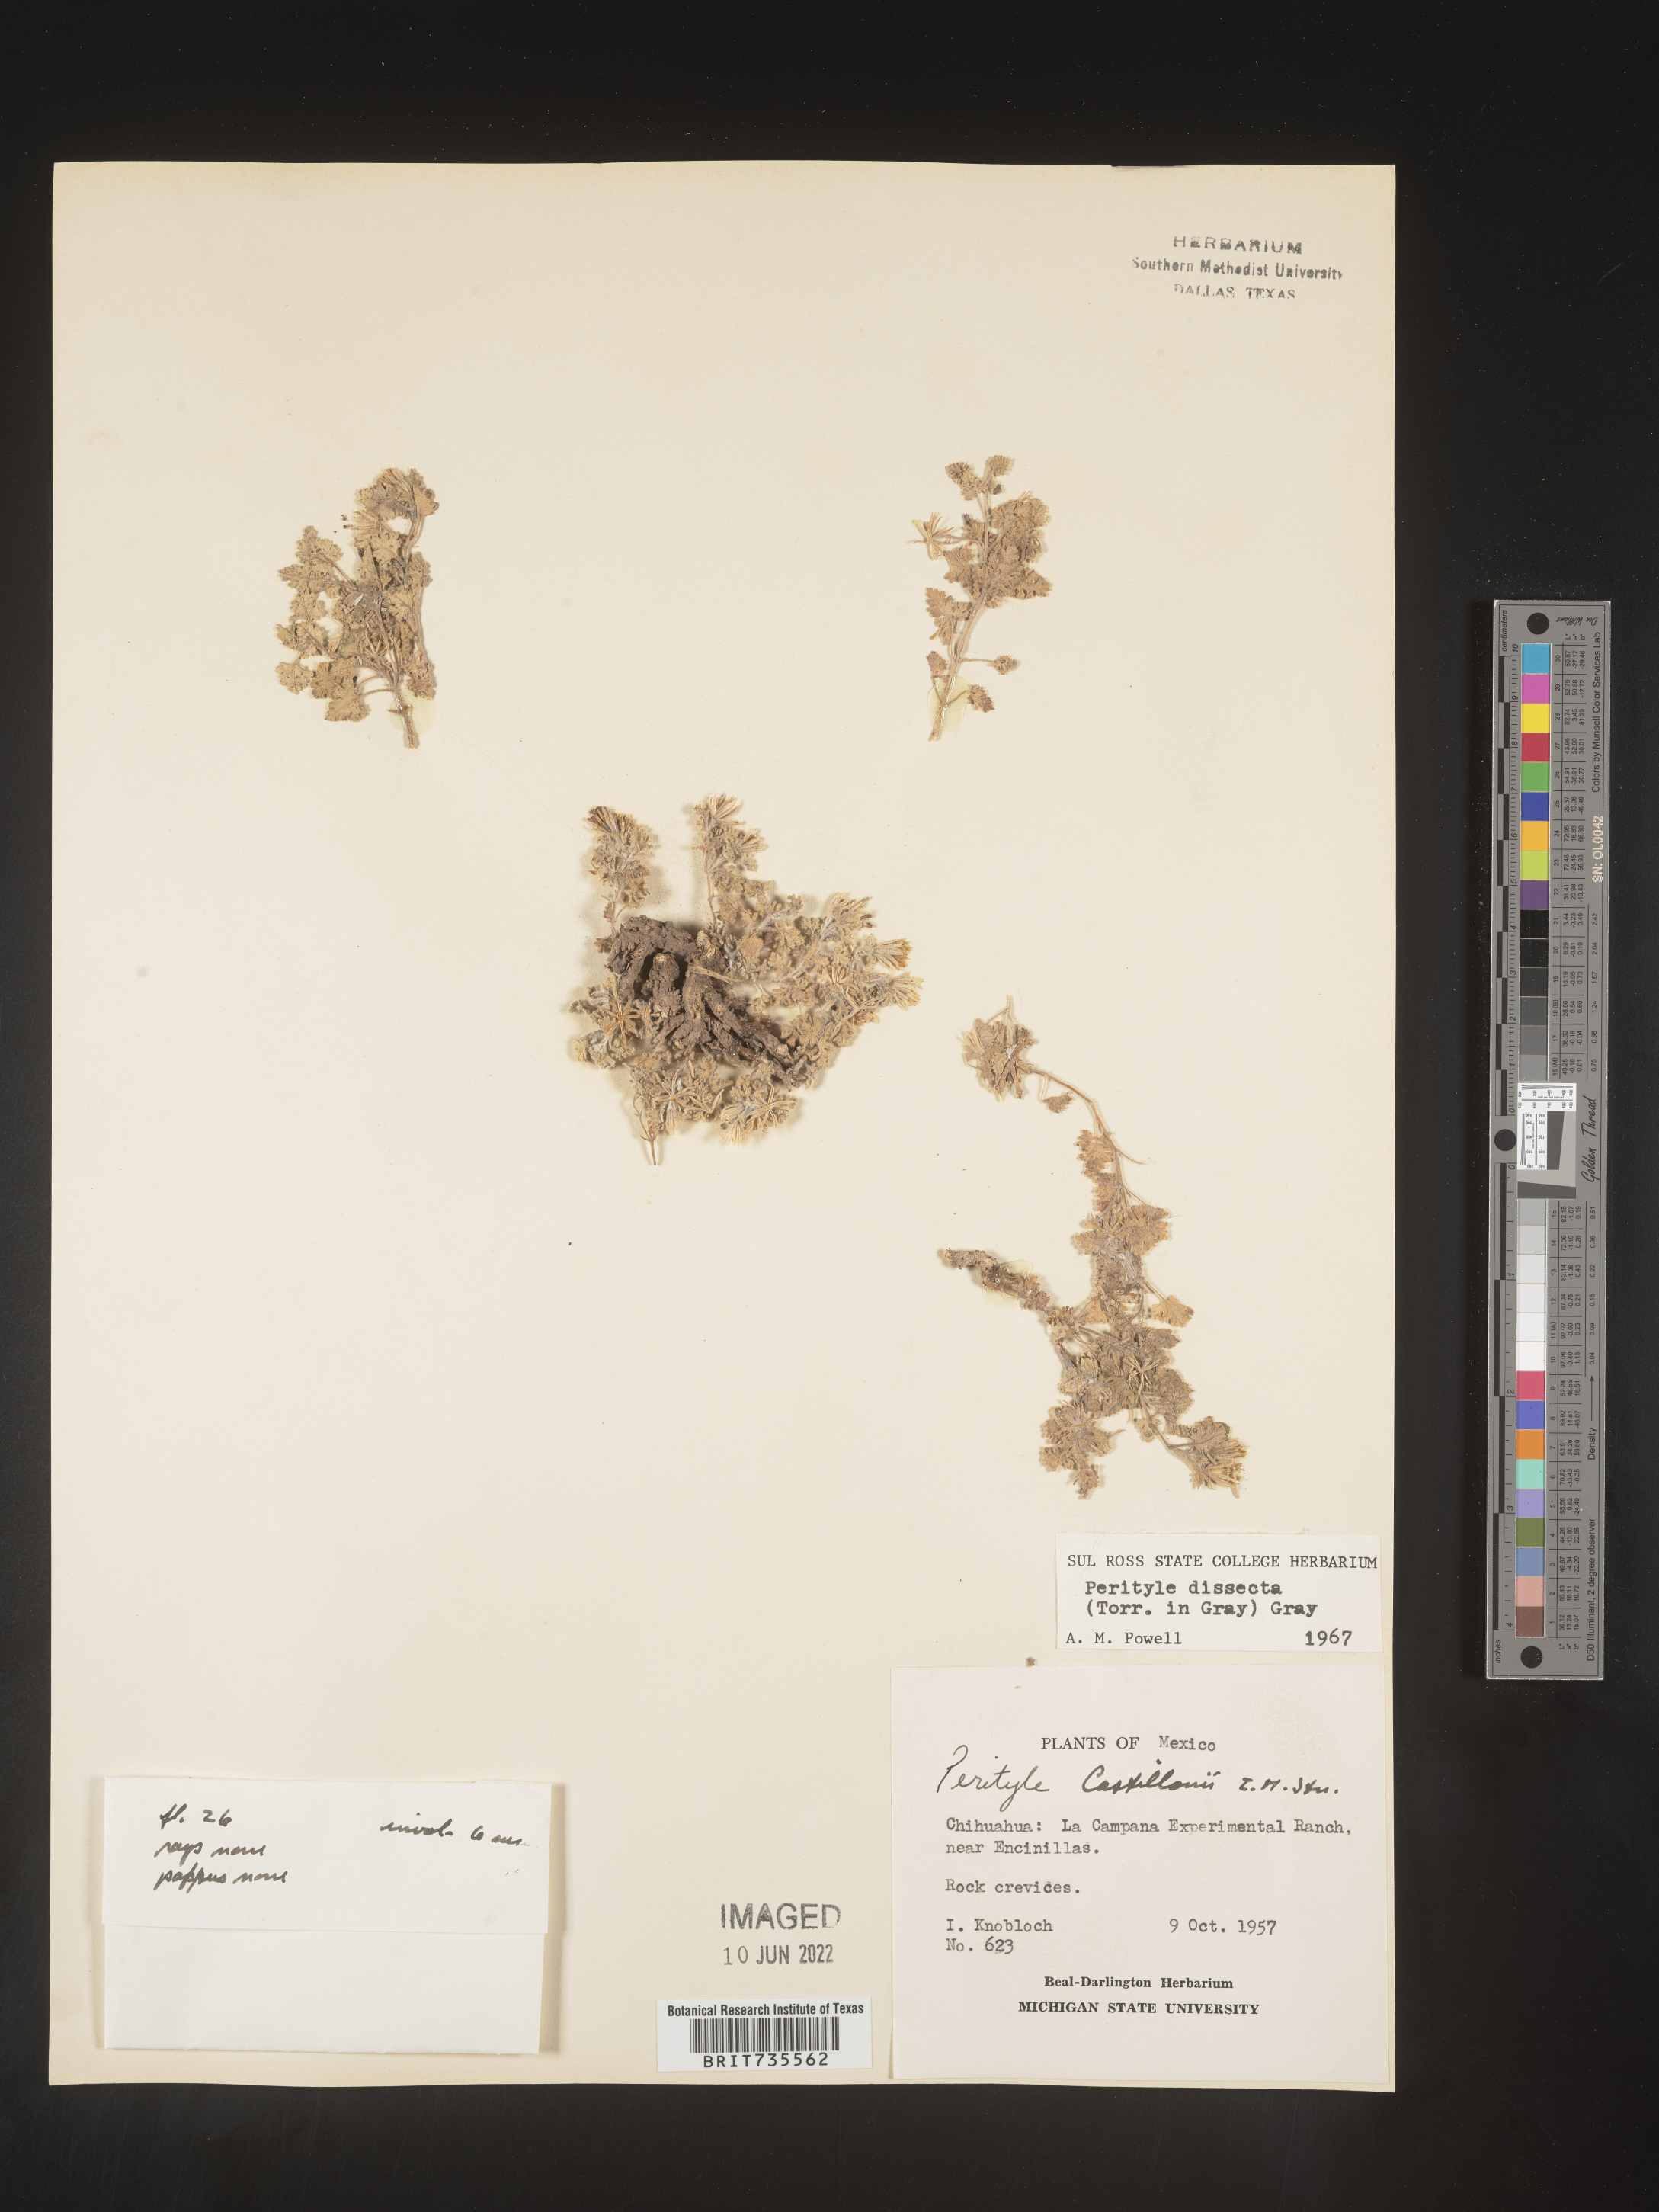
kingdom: Plantae
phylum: Tracheophyta
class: Magnoliopsida
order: Asterales
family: Asteraceae
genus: Perityle
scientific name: Perityle
